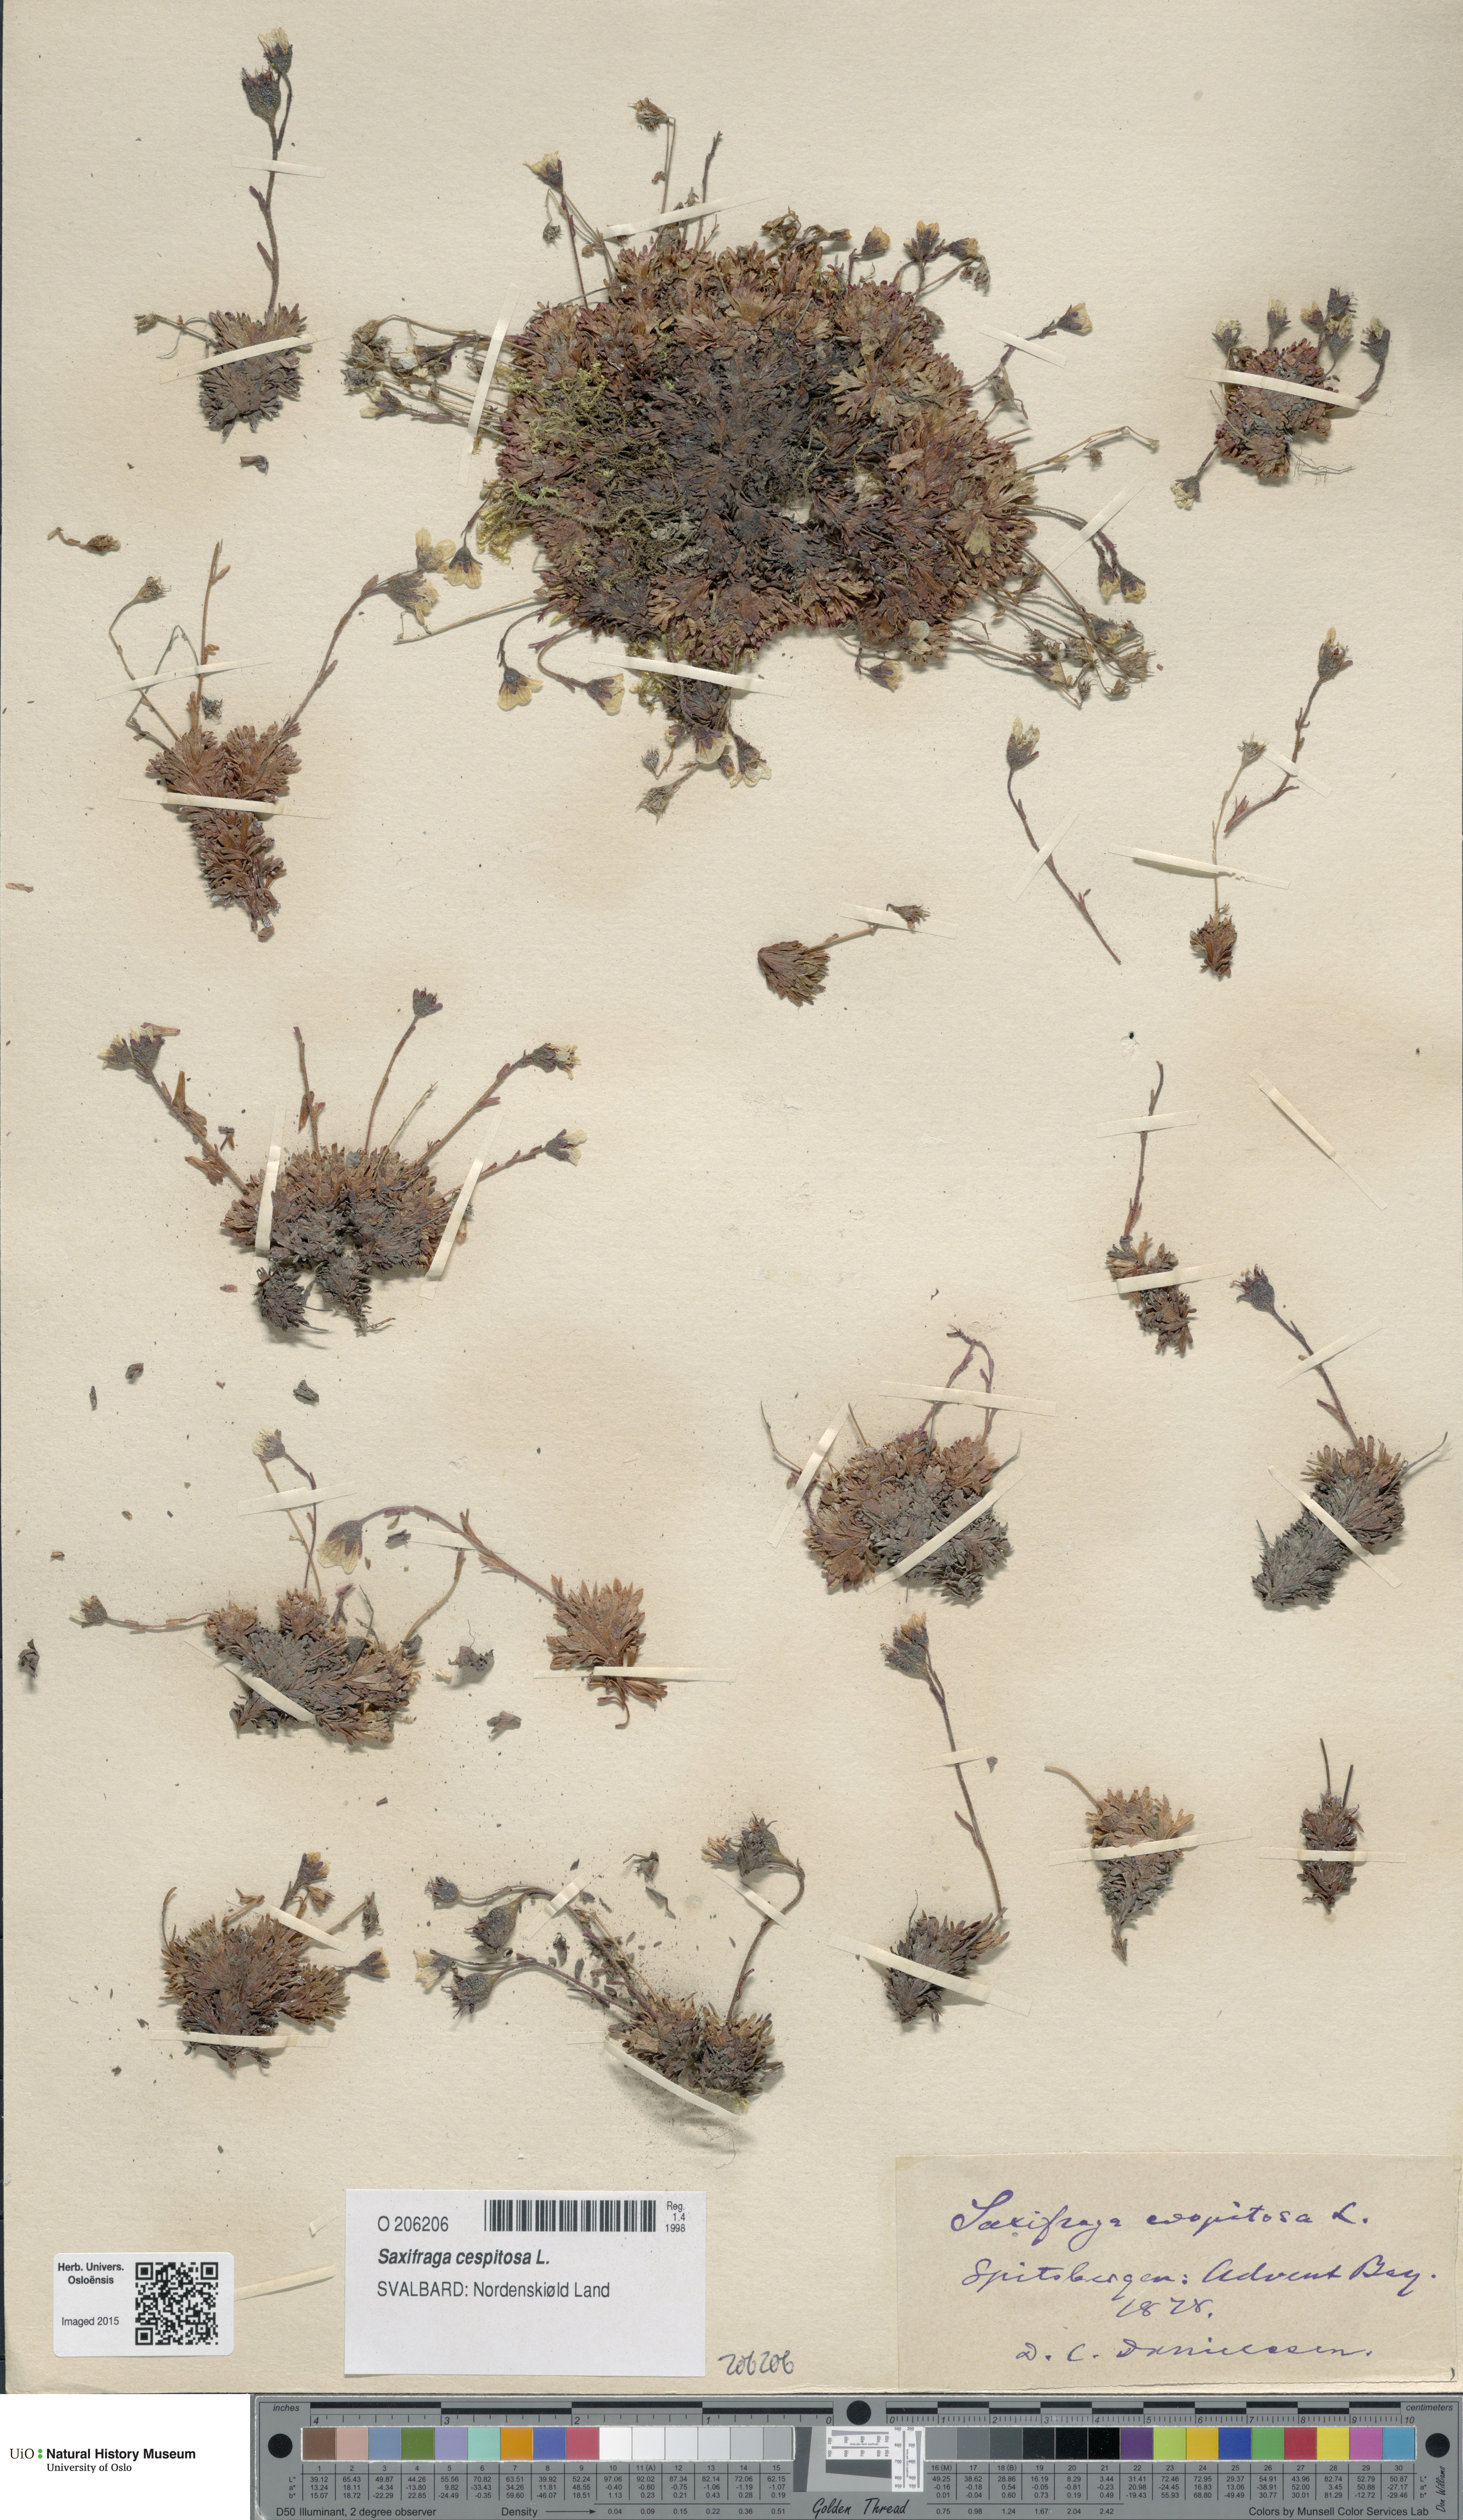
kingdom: Plantae
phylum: Tracheophyta
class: Magnoliopsida
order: Saxifragales
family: Saxifragaceae
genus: Saxifraga
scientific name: Saxifraga cespitosa
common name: Tufted saxifrage
